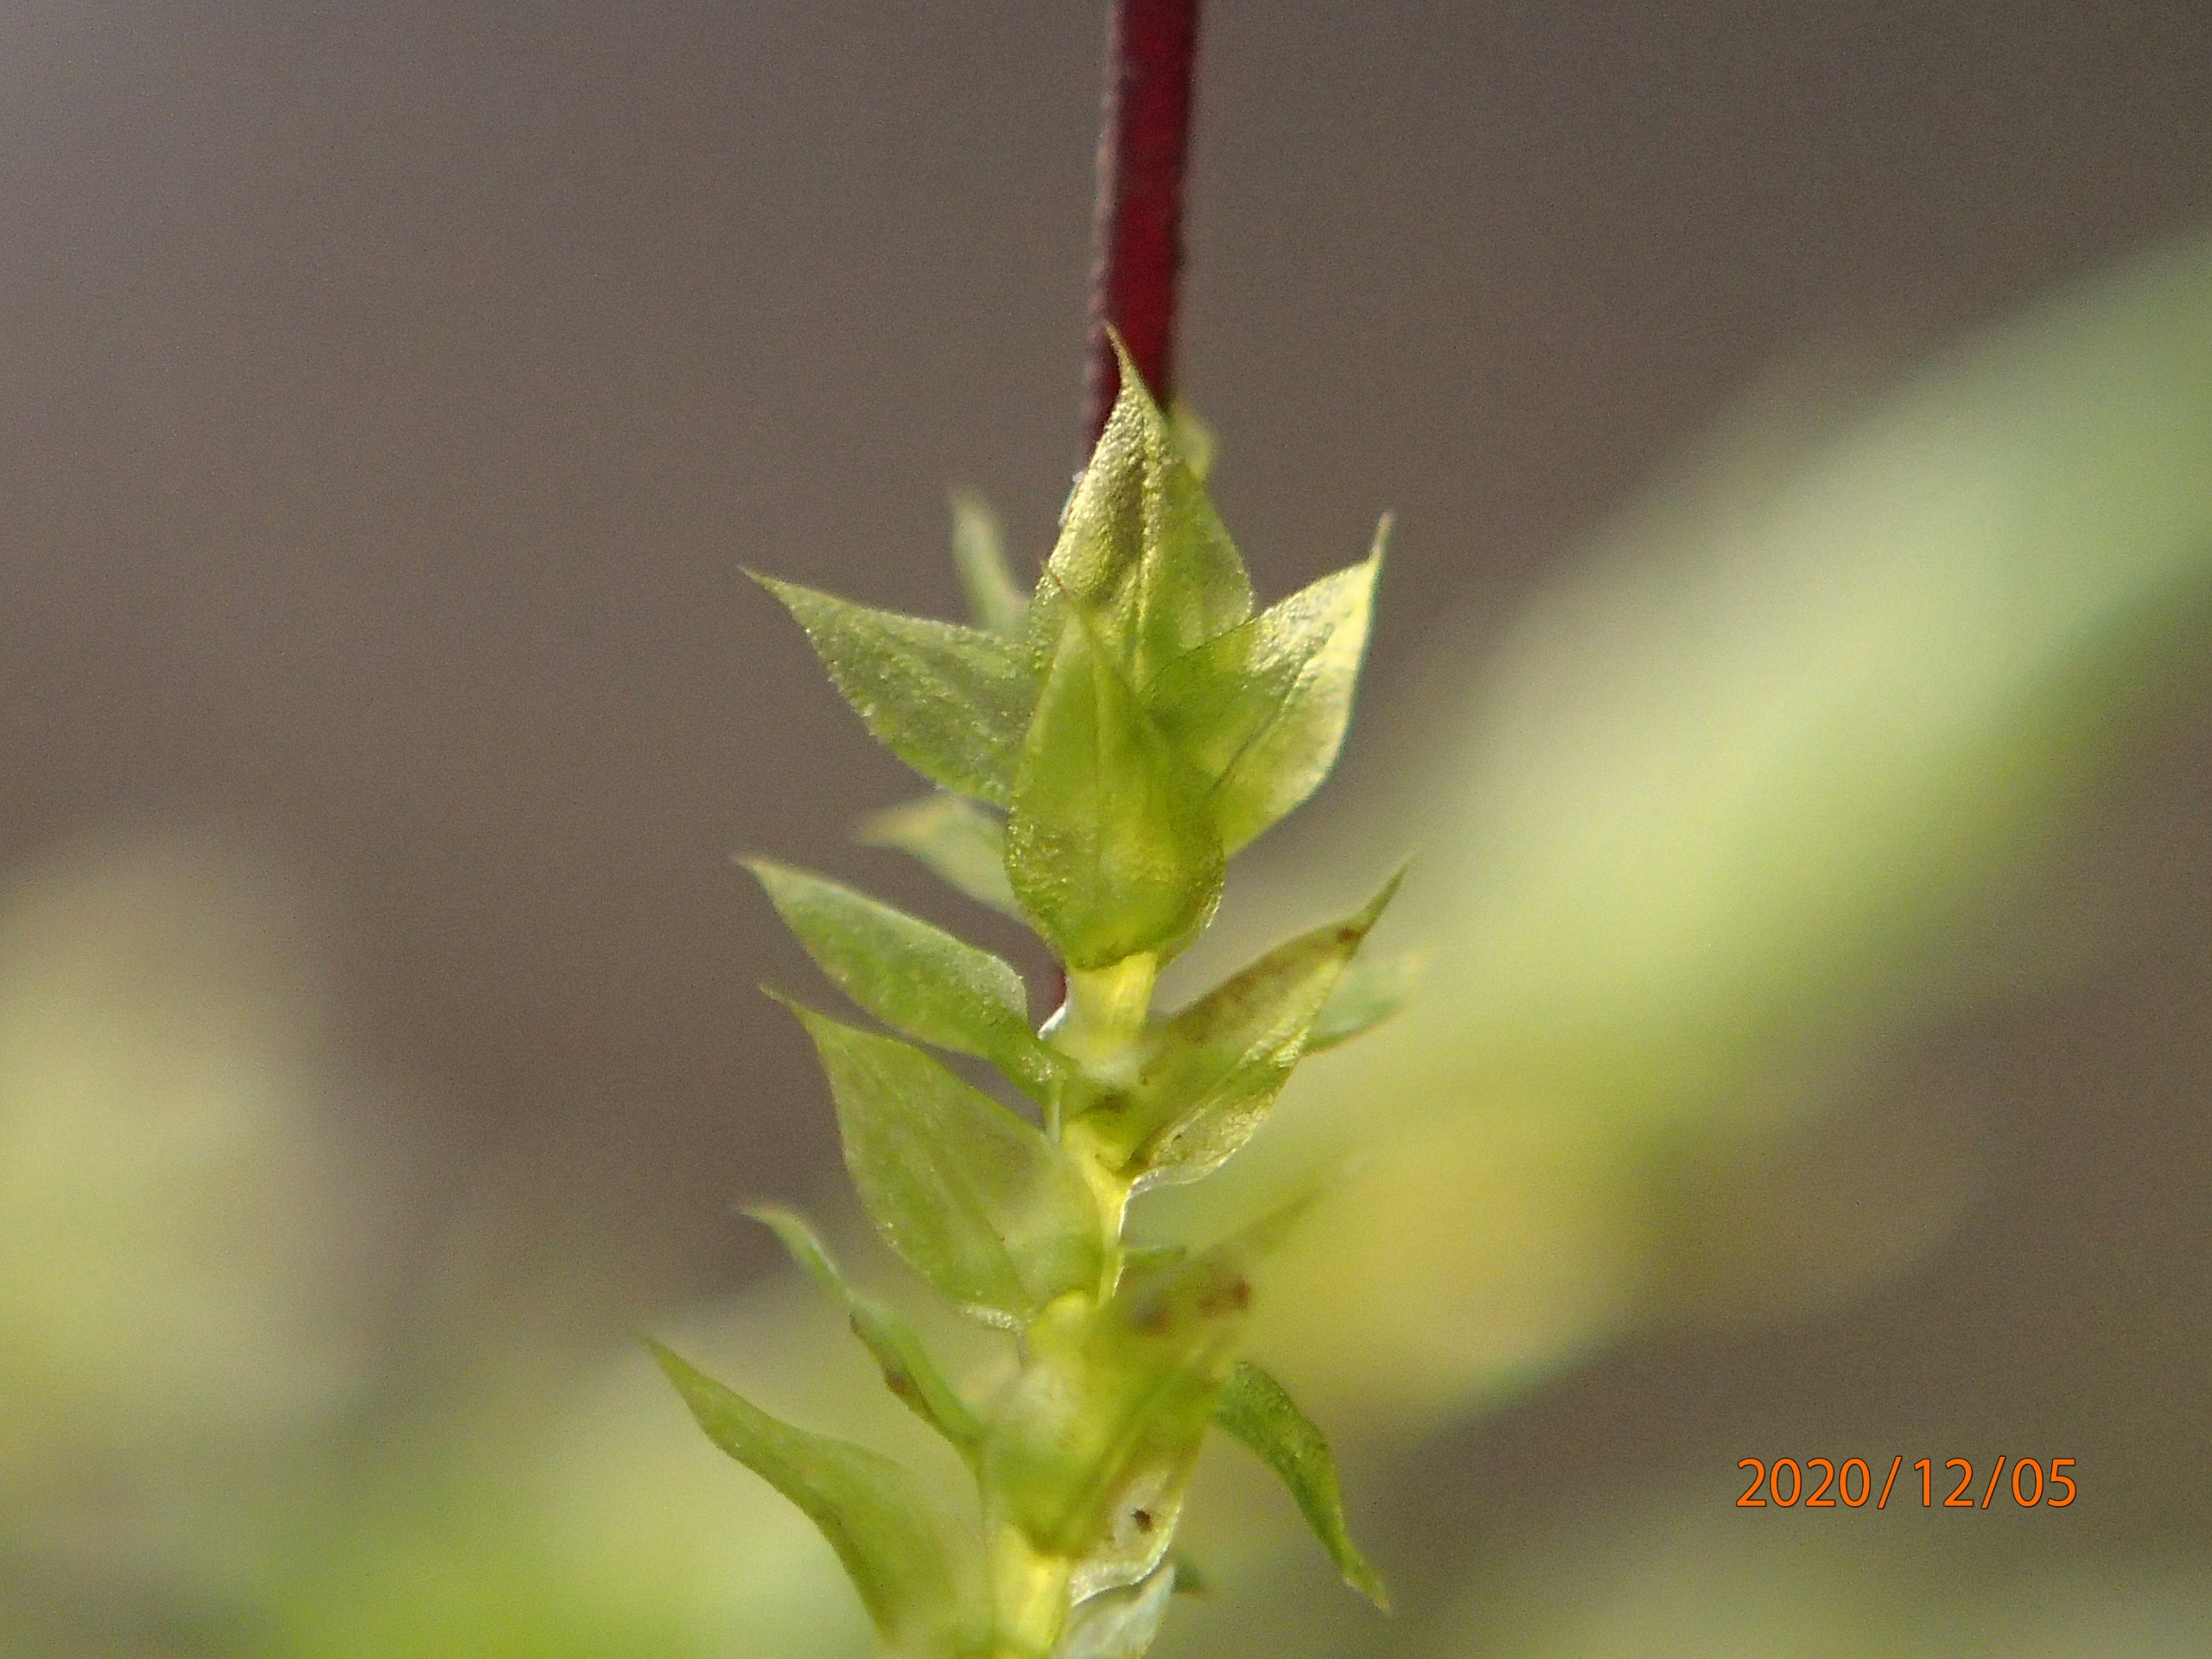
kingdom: Plantae
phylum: Bryophyta
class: Bryopsida
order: Hypnales
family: Brachytheciaceae
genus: Oxyrrhynchium
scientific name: Oxyrrhynchium speciosum
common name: Stor vortetand
